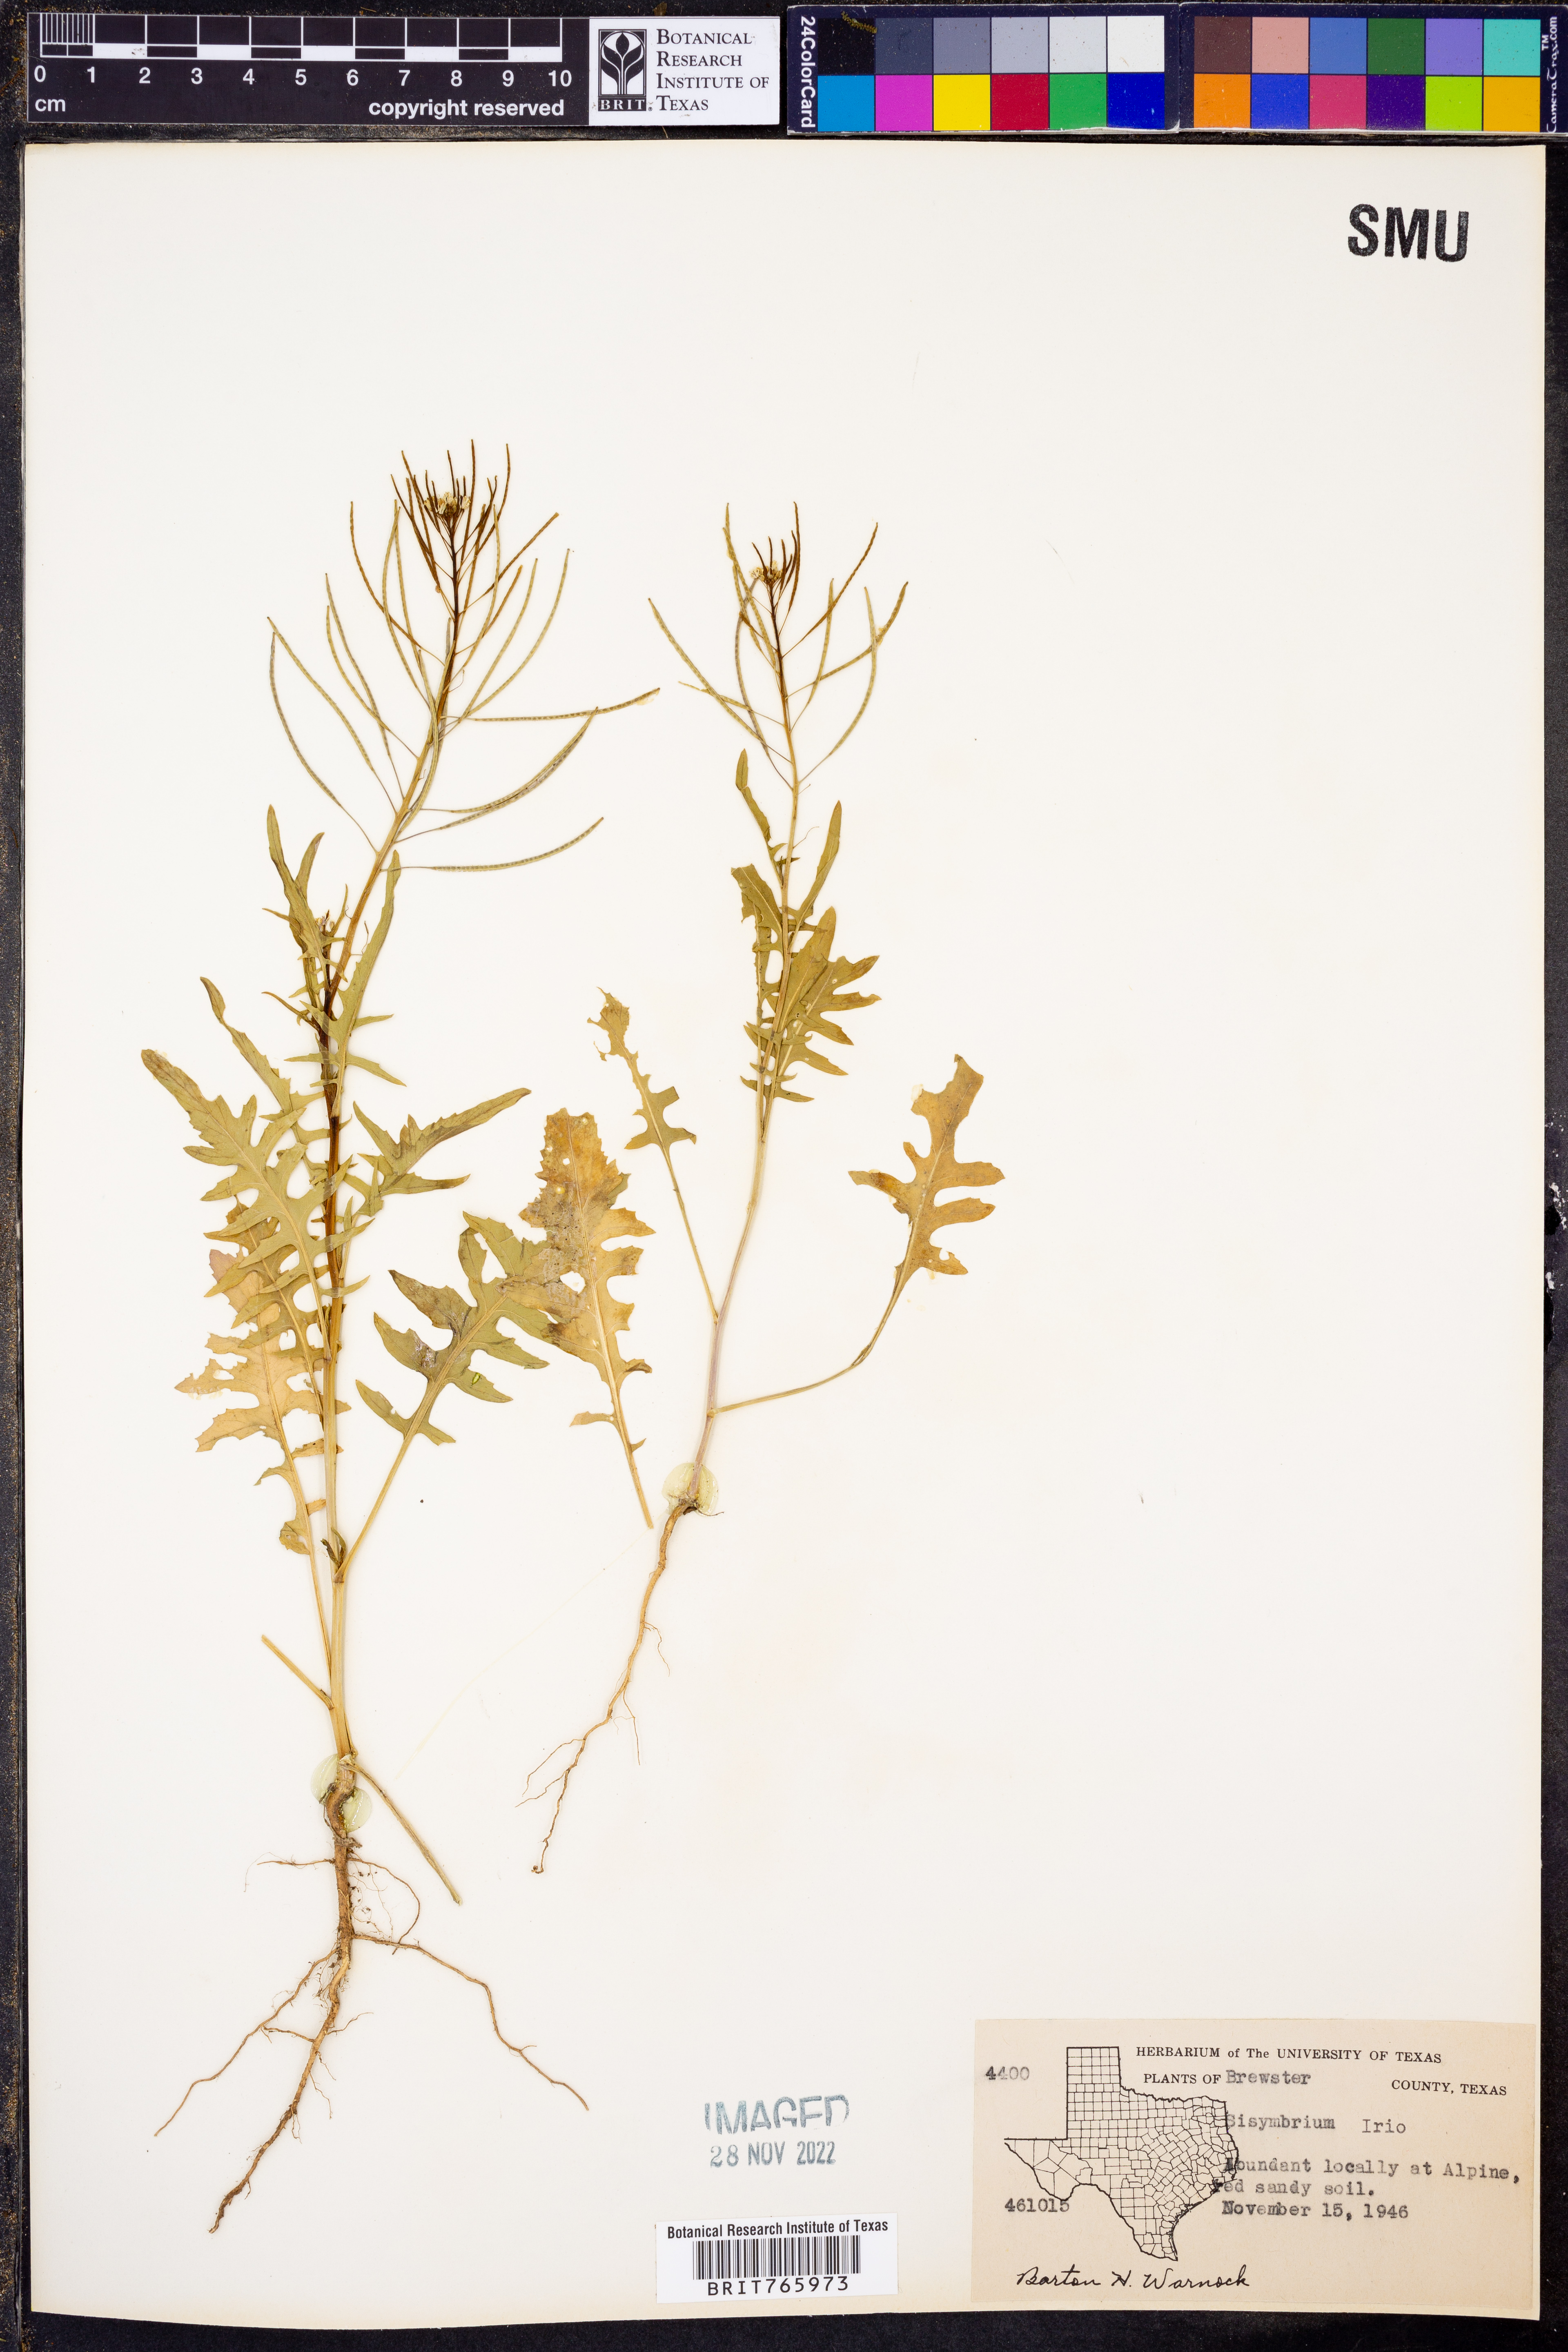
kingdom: Plantae
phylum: Tracheophyta
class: Magnoliopsida
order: Brassicales
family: Brassicaceae
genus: Sisymbrium
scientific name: Sisymbrium irio
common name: London rocket
